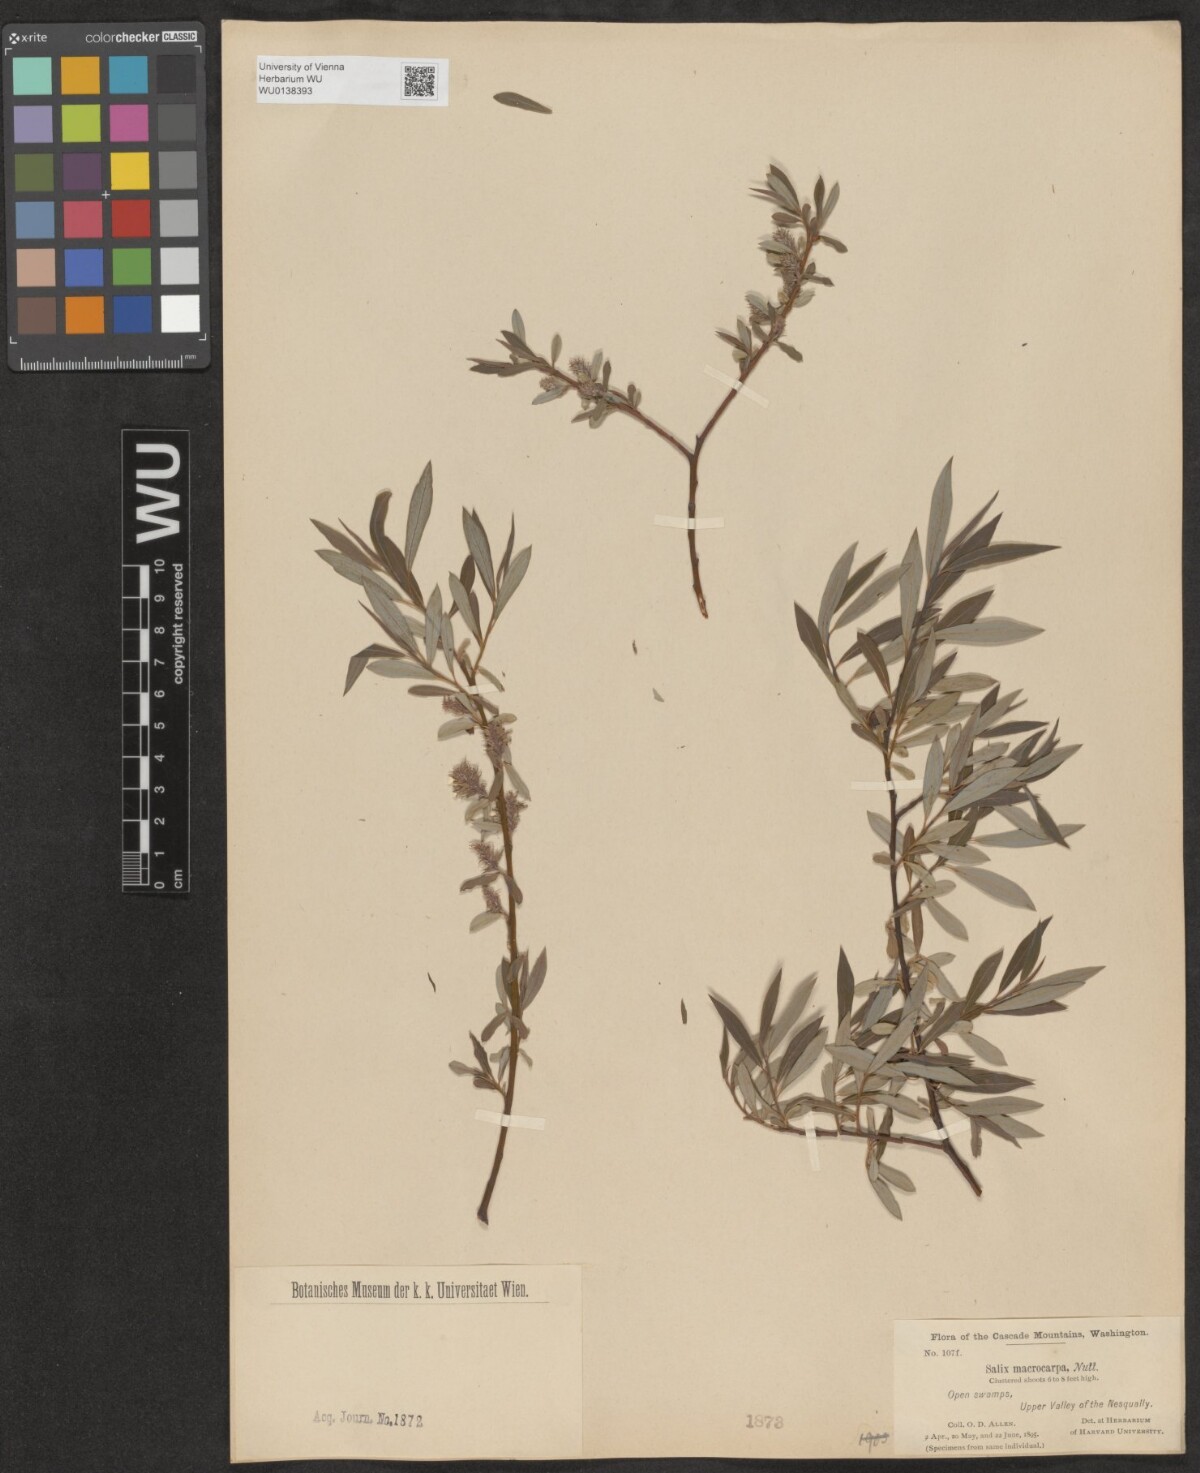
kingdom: Plantae
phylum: Tracheophyta
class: Magnoliopsida
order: Malpighiales
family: Salicaceae
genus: Salix
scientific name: Salix glauca
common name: Glaucous willow
